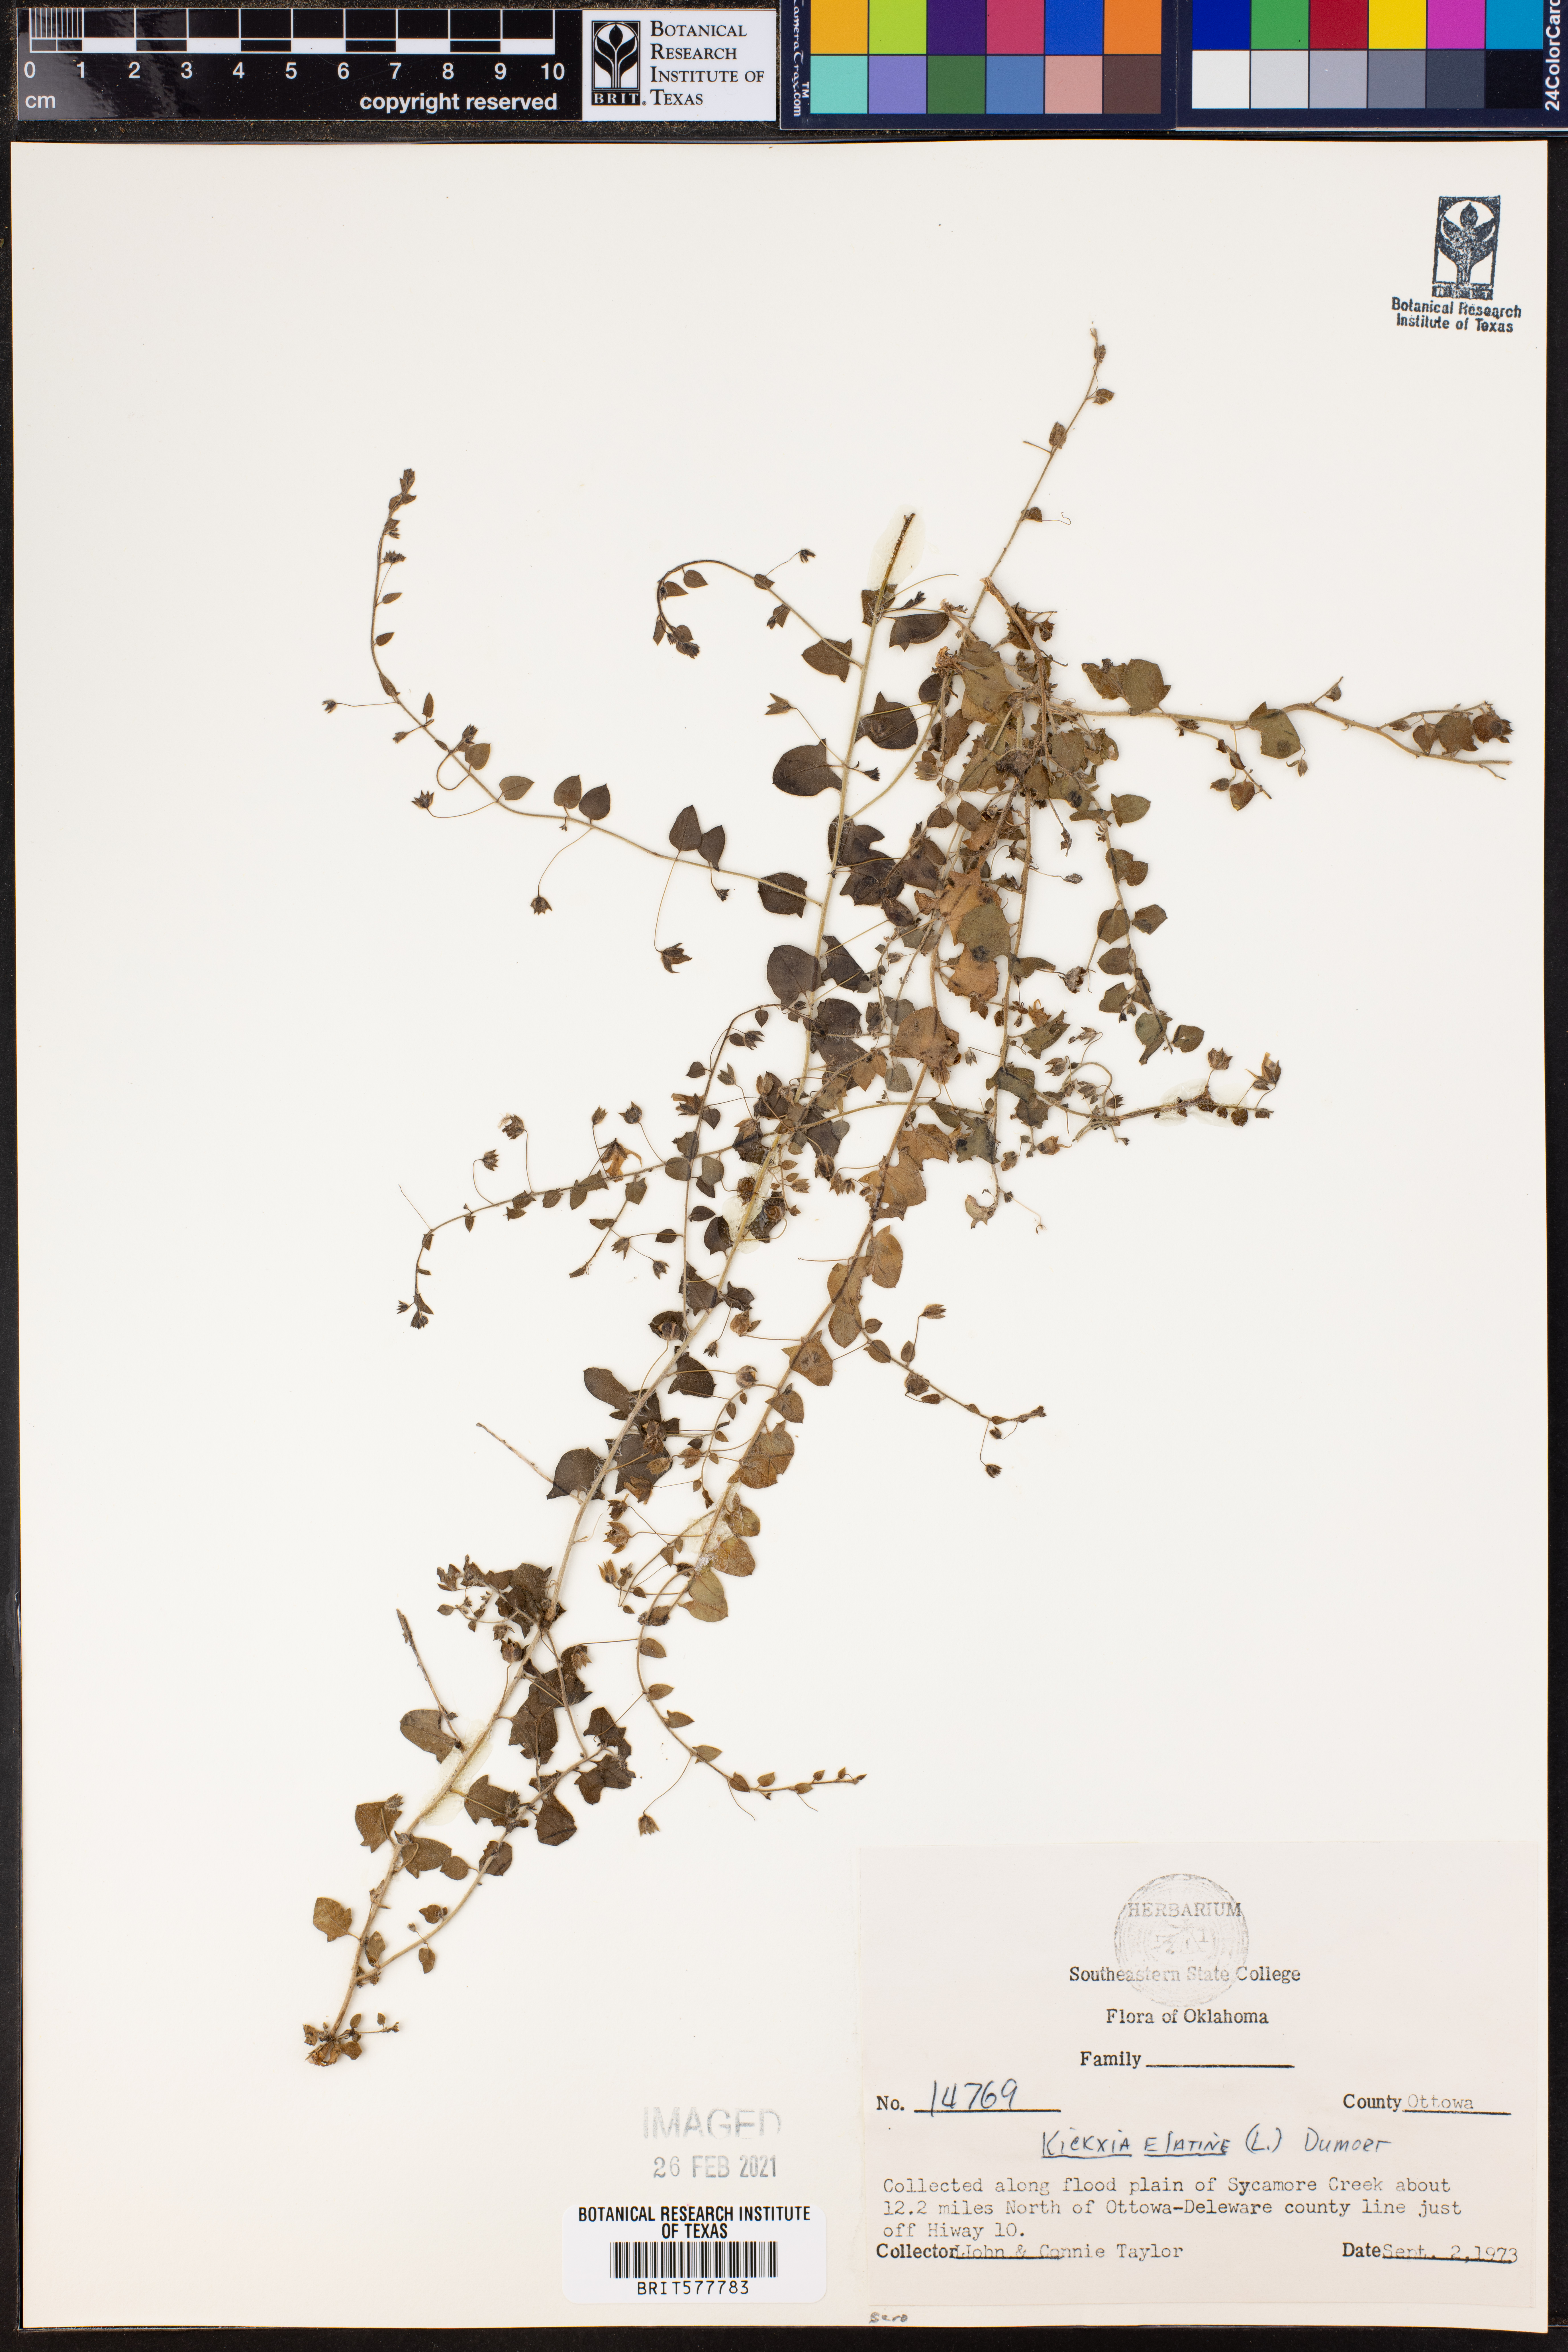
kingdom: Plantae
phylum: Tracheophyta
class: Magnoliopsida
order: Lamiales
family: Plantaginaceae
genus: Kickxia
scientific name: Kickxia elatine
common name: Sharp-leaved fluellen
